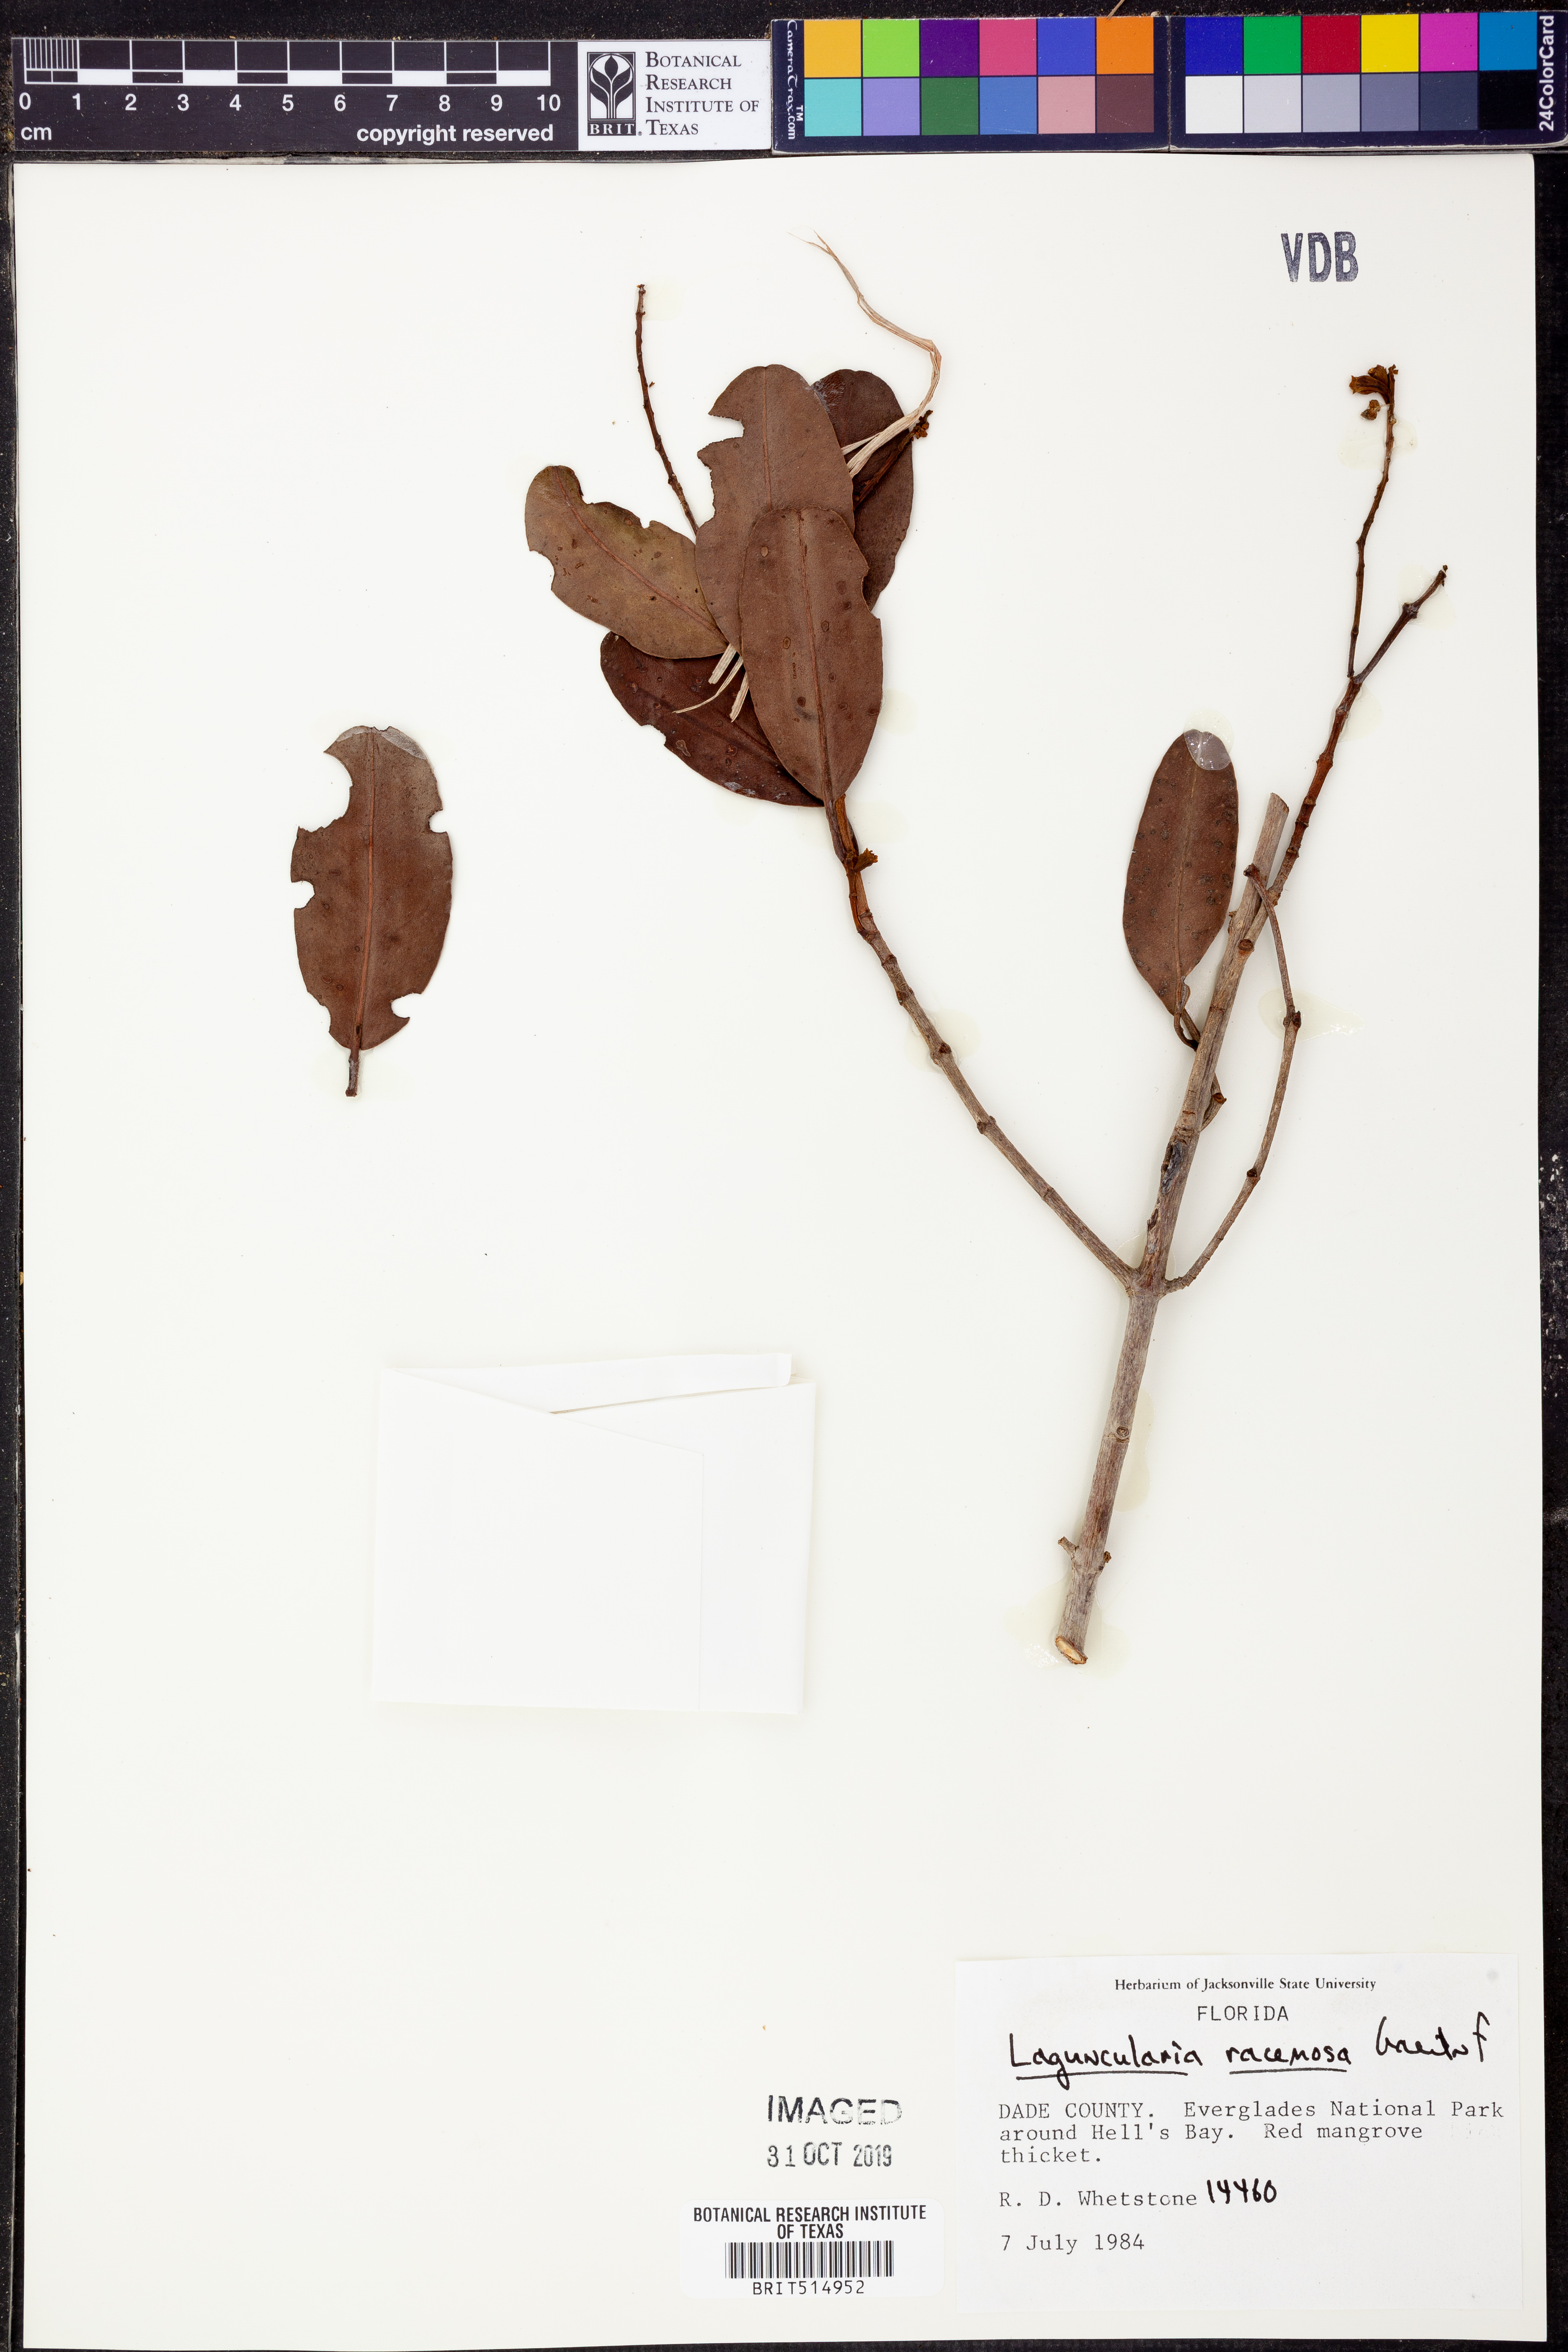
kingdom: Plantae
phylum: Tracheophyta
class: Magnoliopsida
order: Myrtales
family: Combretaceae
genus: Laguncularia
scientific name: Laguncularia racemosa
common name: White mangrove
